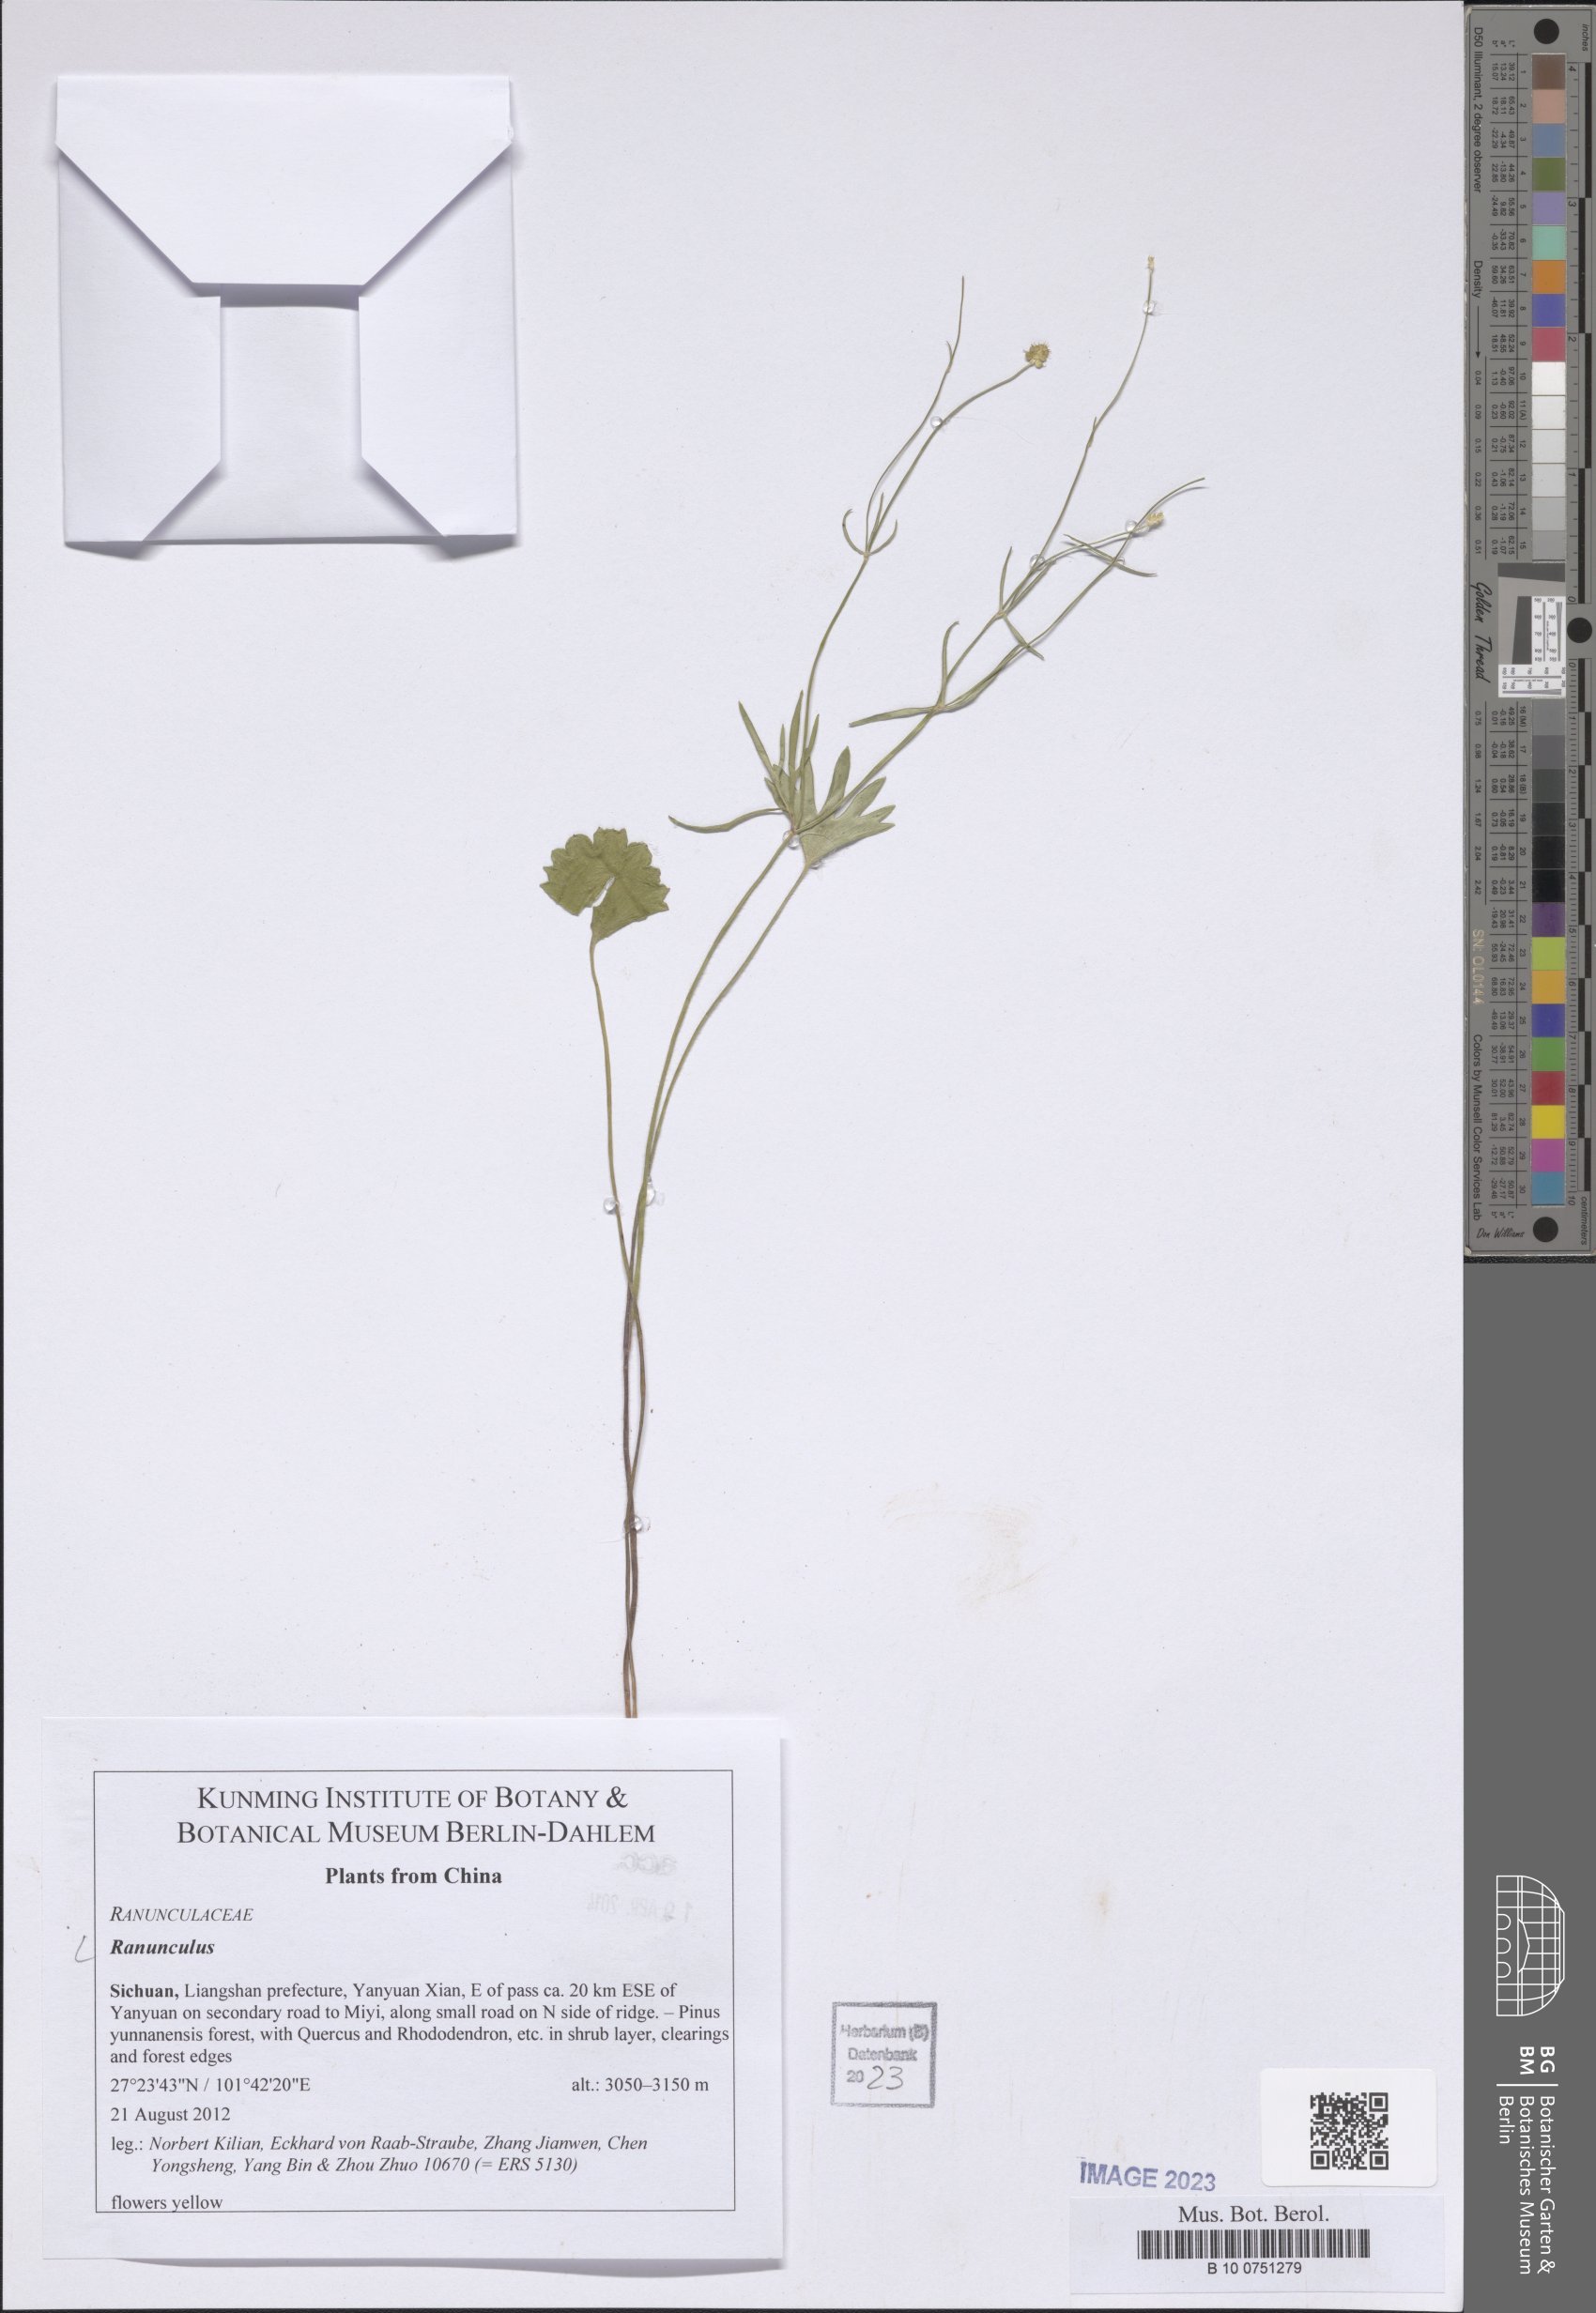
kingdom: Plantae
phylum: Tracheophyta
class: Magnoliopsida
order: Ranunculales
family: Ranunculaceae
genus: Ranunculus
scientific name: Ranunculus
